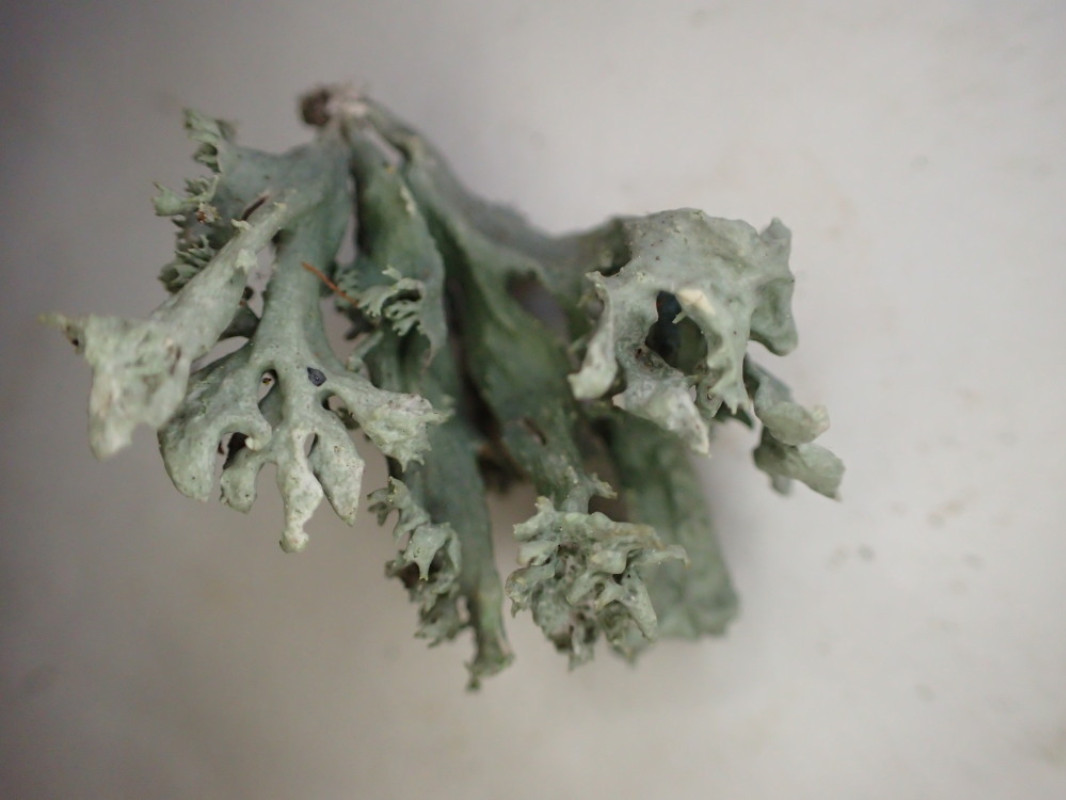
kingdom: Fungi
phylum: Ascomycota
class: Lecanoromycetes
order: Lecanorales
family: Ramalinaceae
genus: Ramalina
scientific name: Ramalina fastigiata
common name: tue-grenlav
